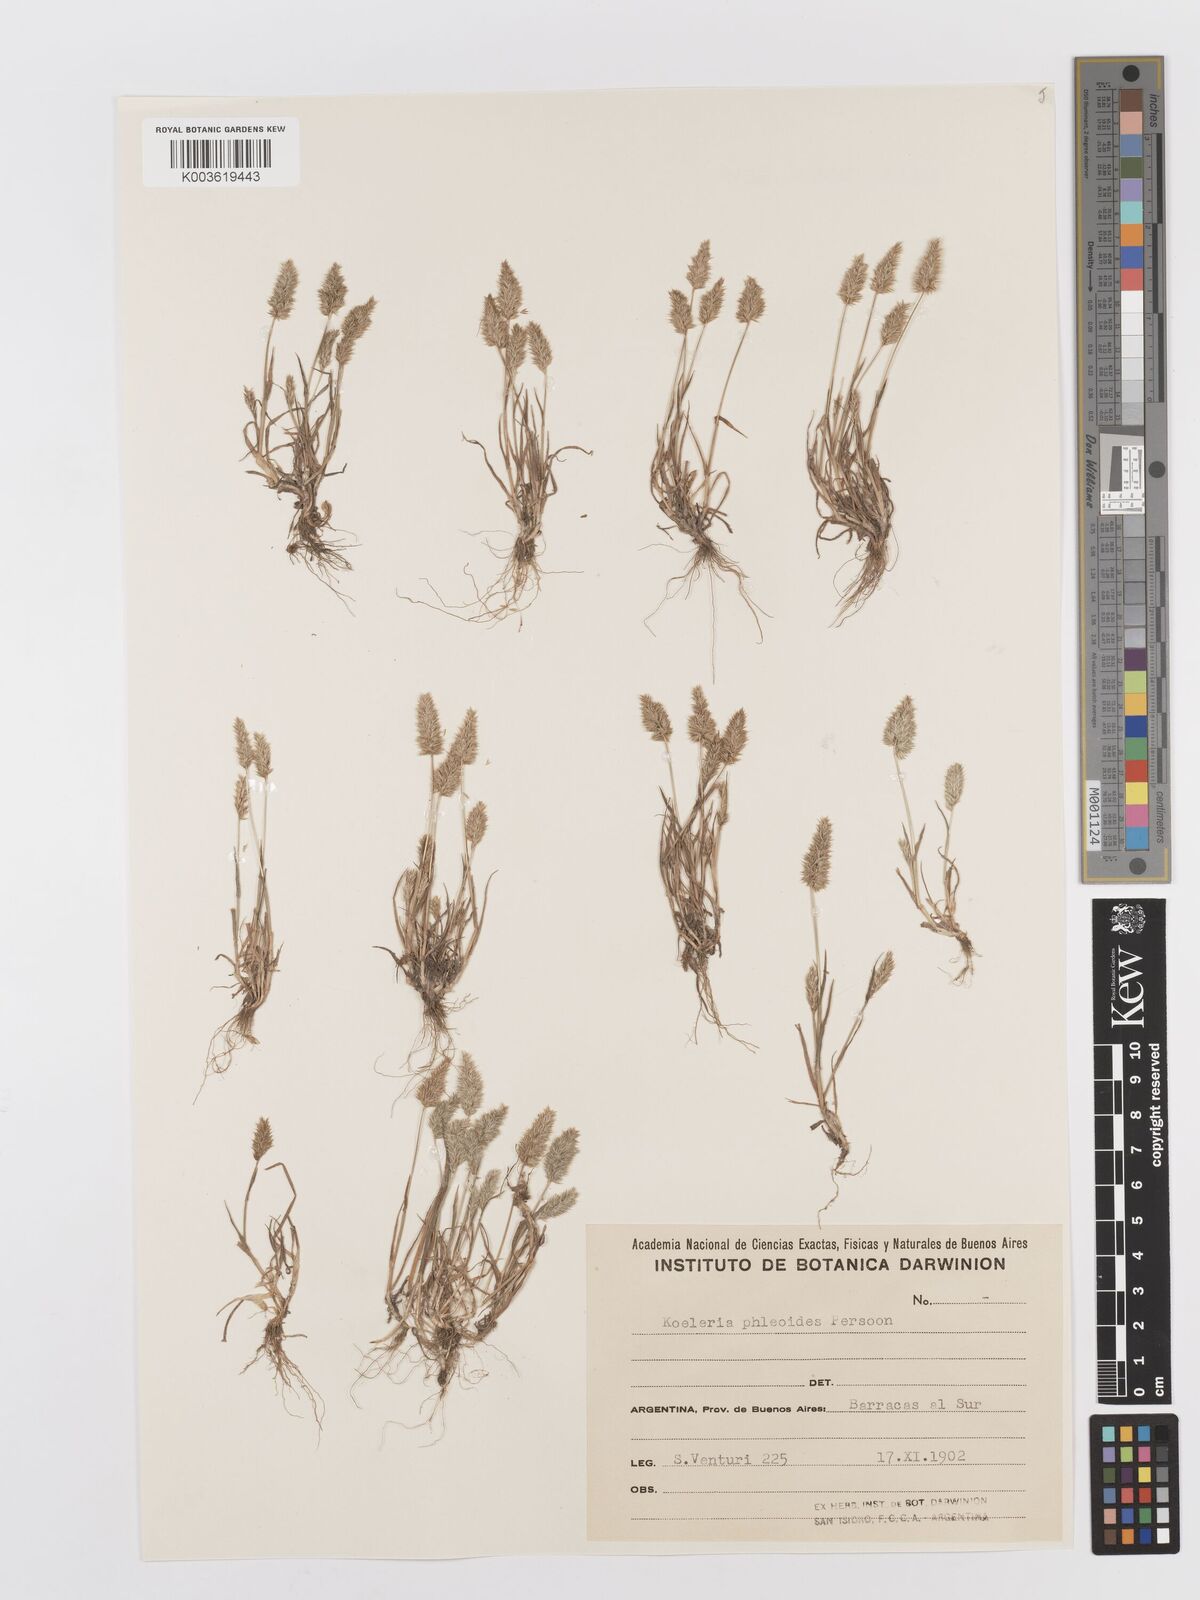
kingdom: Plantae
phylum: Tracheophyta
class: Liliopsida
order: Poales
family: Poaceae
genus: Rostraria
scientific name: Rostraria cristata
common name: Mediterranean hair-grass
